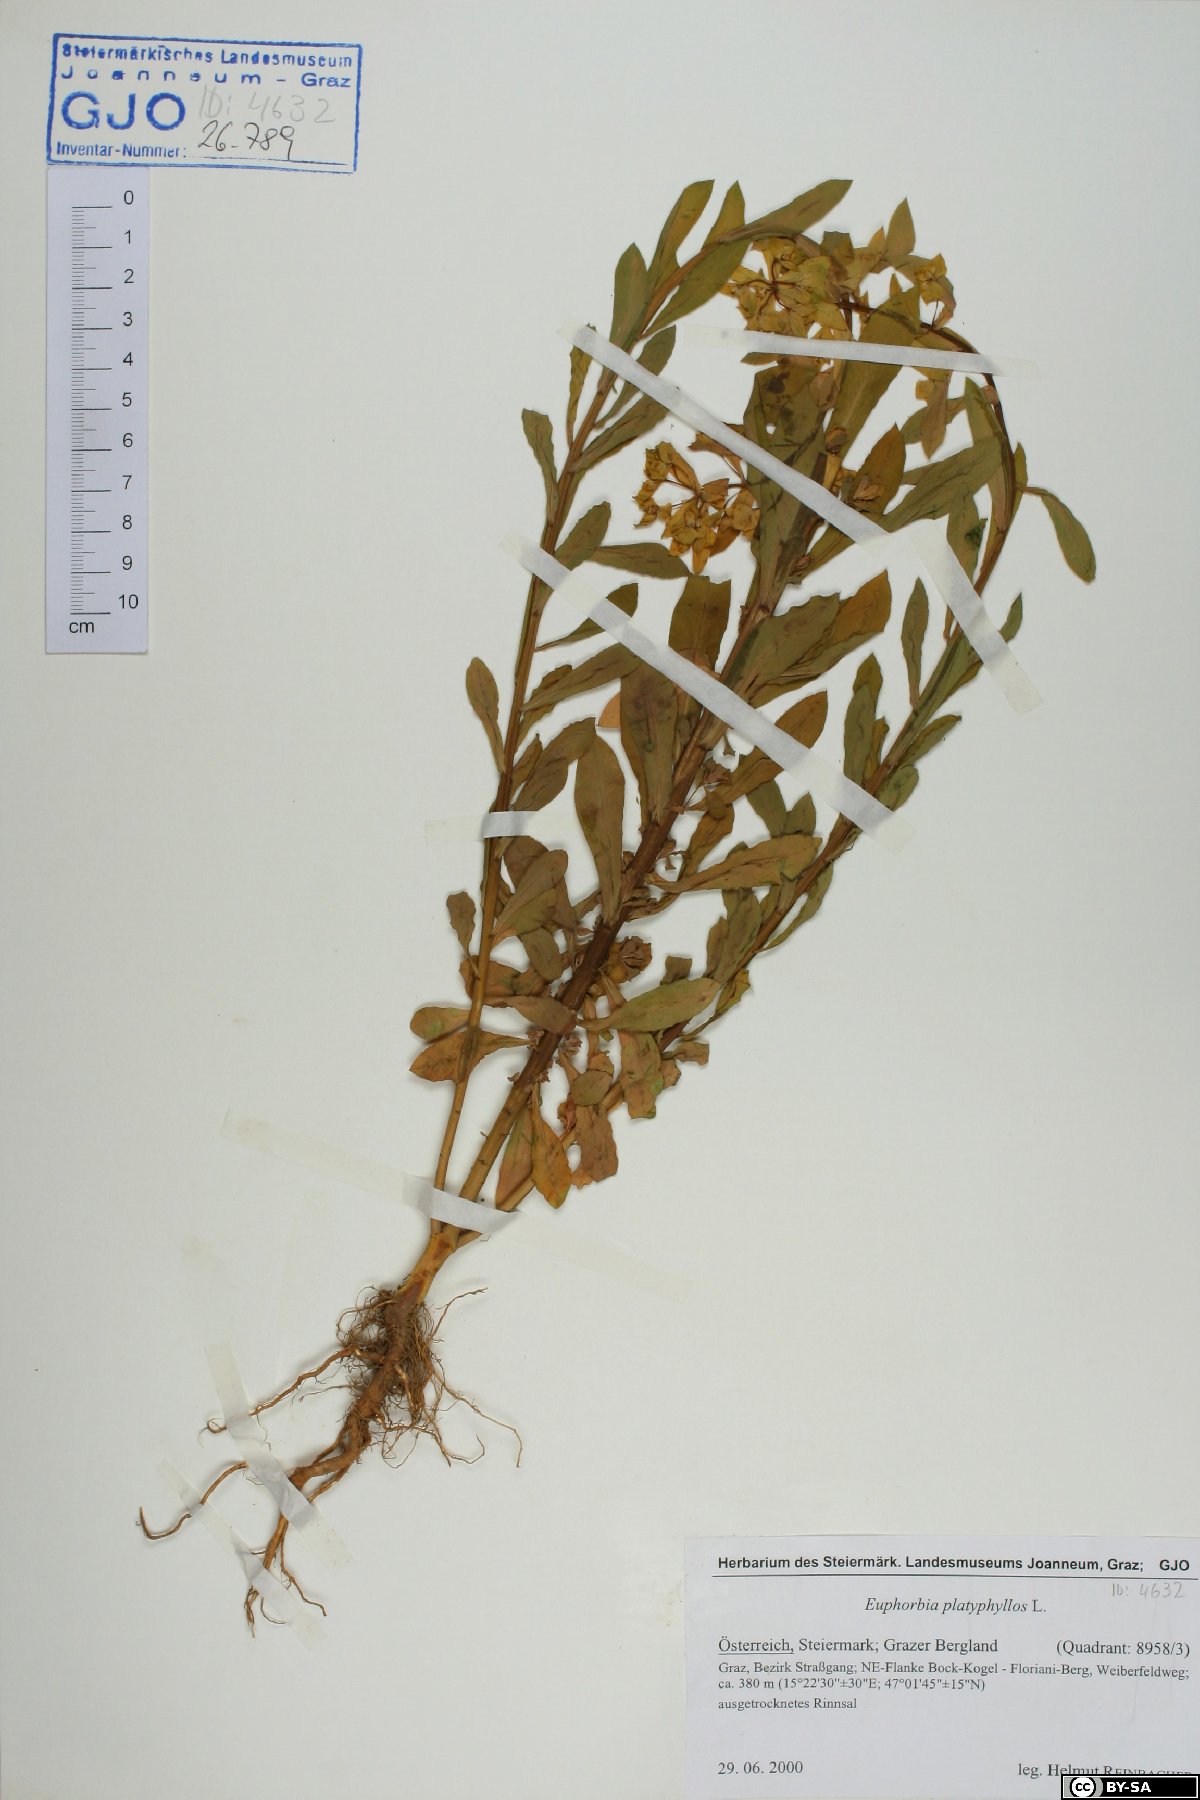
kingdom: Plantae
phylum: Tracheophyta
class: Magnoliopsida
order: Malpighiales
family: Euphorbiaceae
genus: Euphorbia
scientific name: Euphorbia platyphyllos
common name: Broad-leaved spurge
